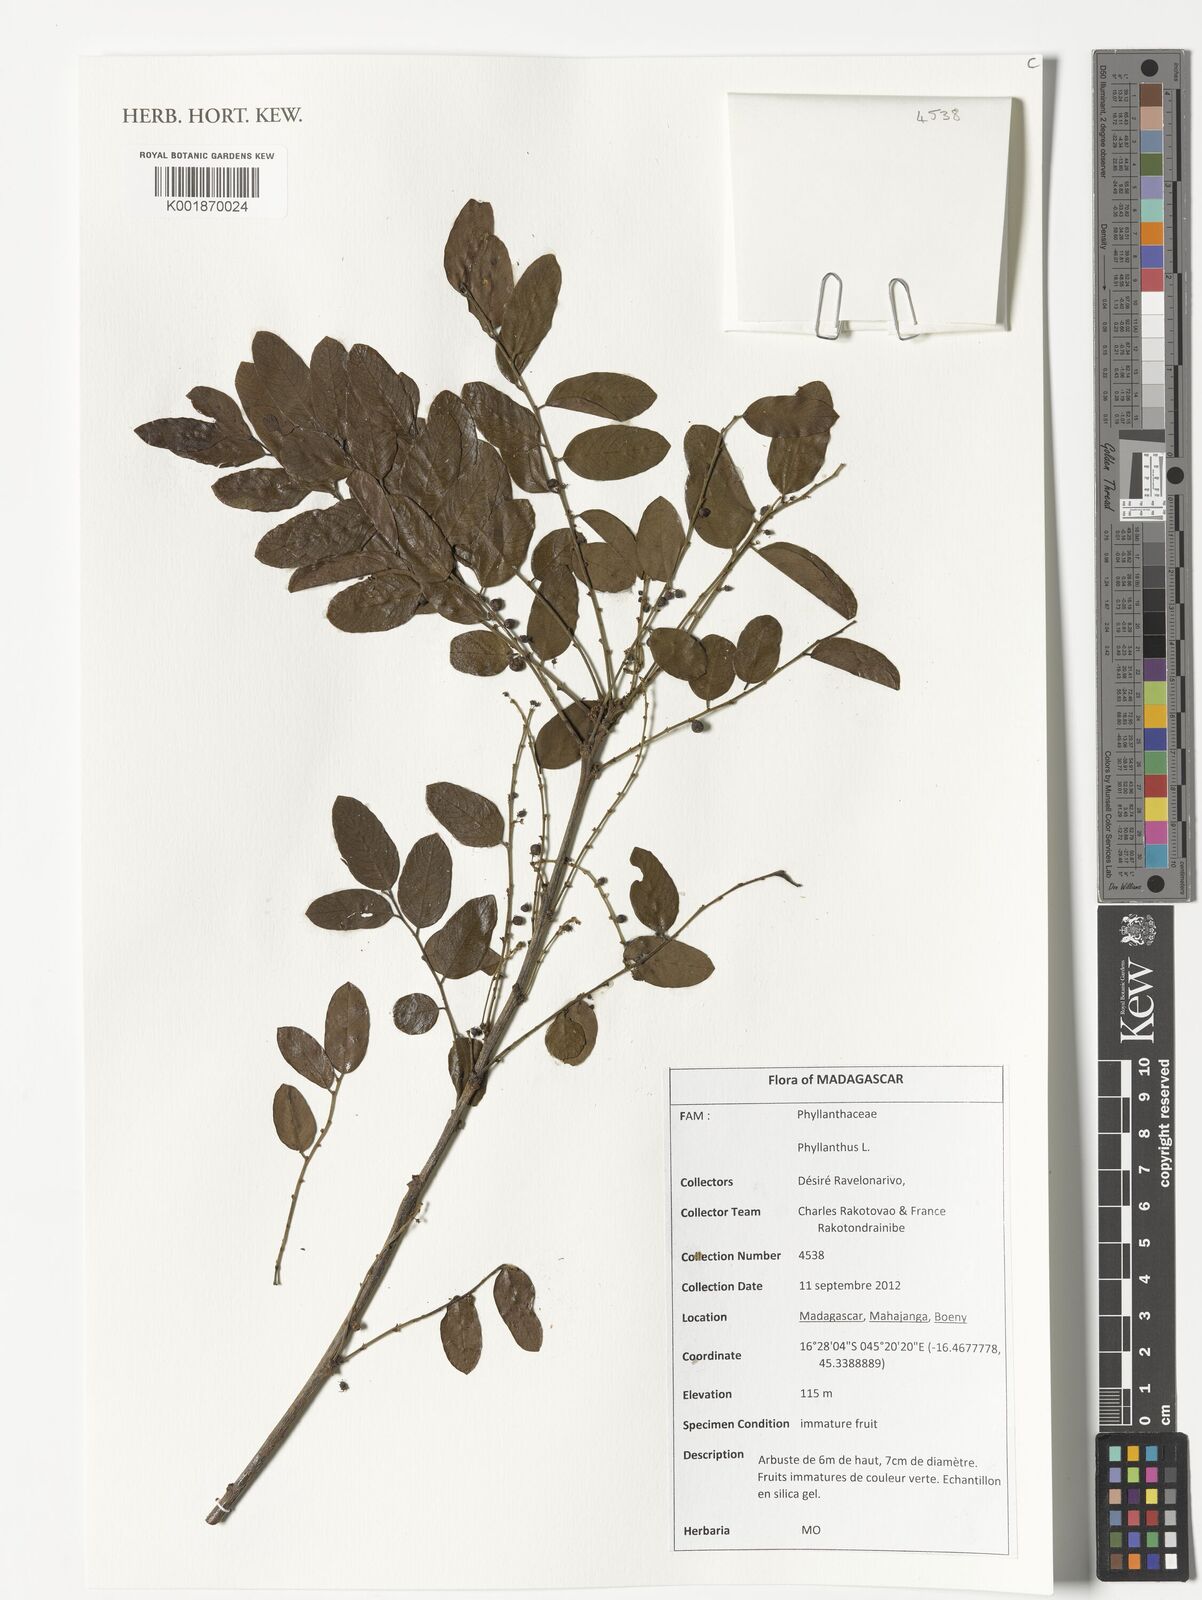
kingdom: Plantae
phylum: Tracheophyta
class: Magnoliopsida
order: Malpighiales
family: Phyllanthaceae
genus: Phyllanthus
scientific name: Phyllanthus
